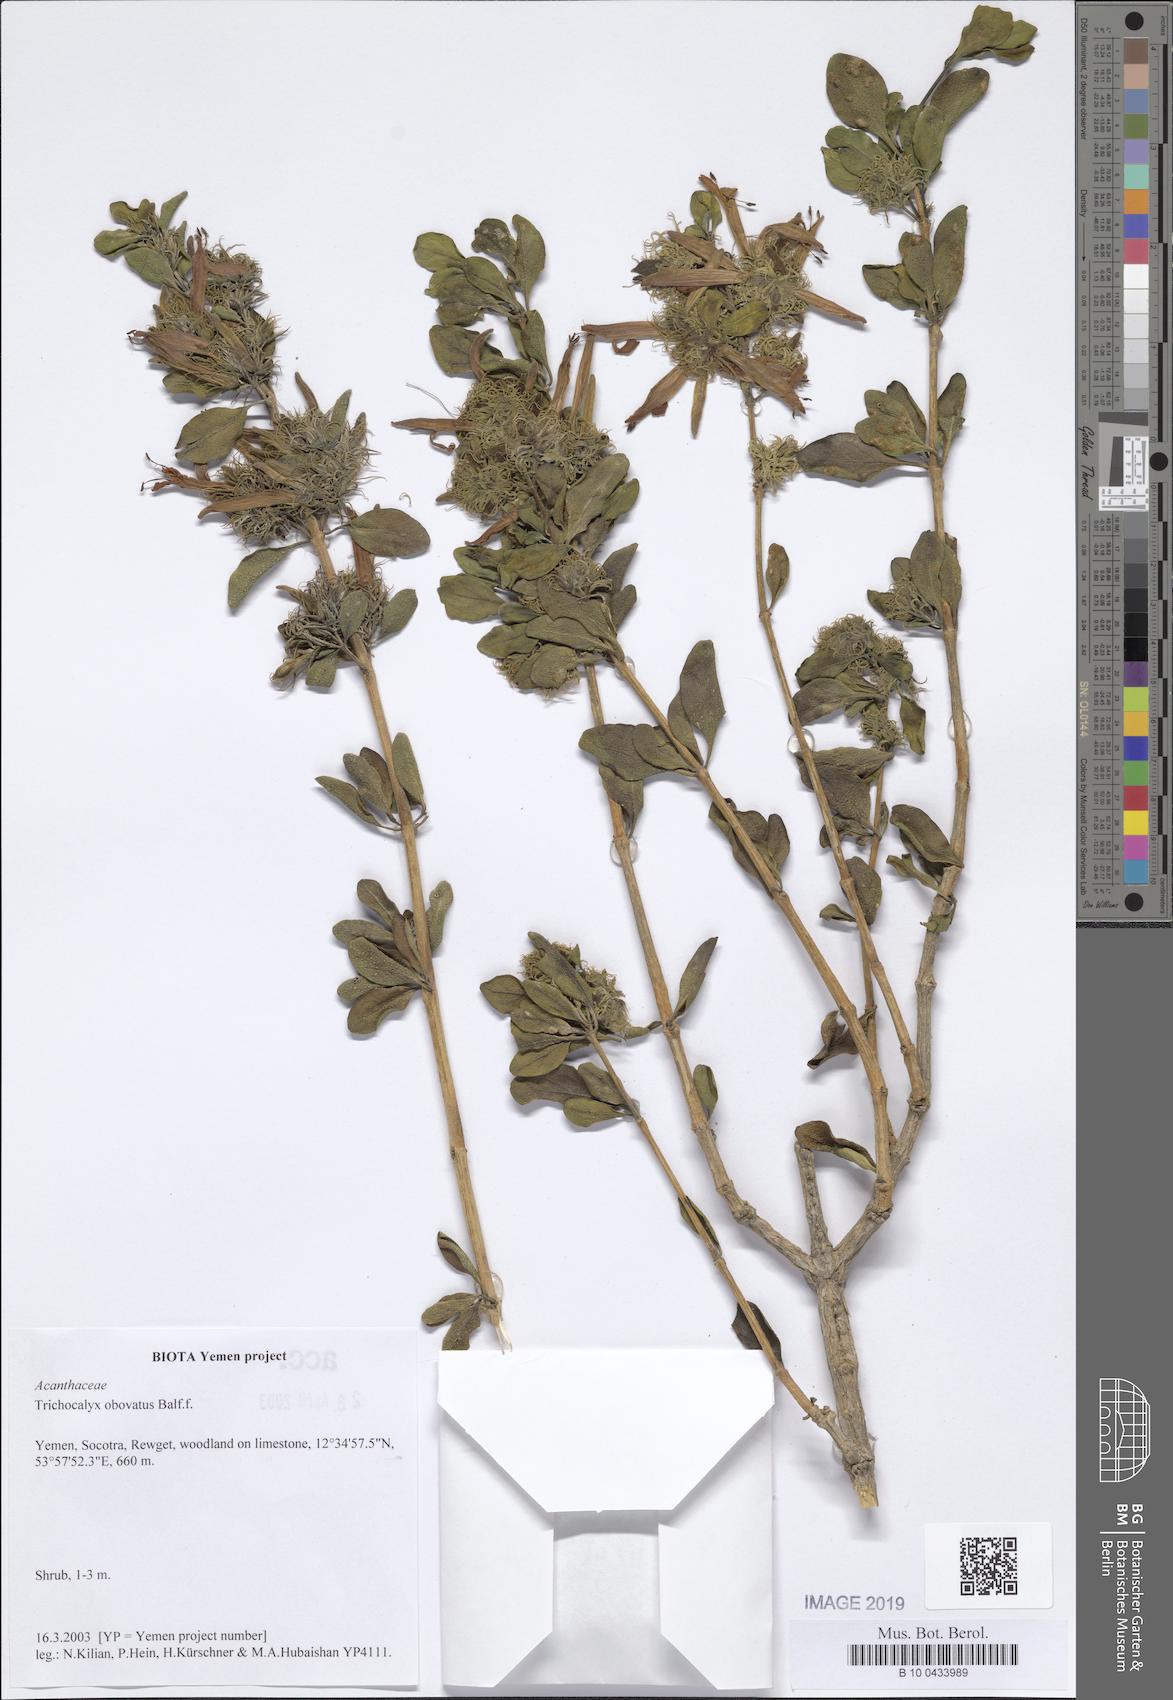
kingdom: Plantae
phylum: Tracheophyta
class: Magnoliopsida
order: Lamiales
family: Acanthaceae
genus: Trichocalyx
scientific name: Trichocalyx obovatus
